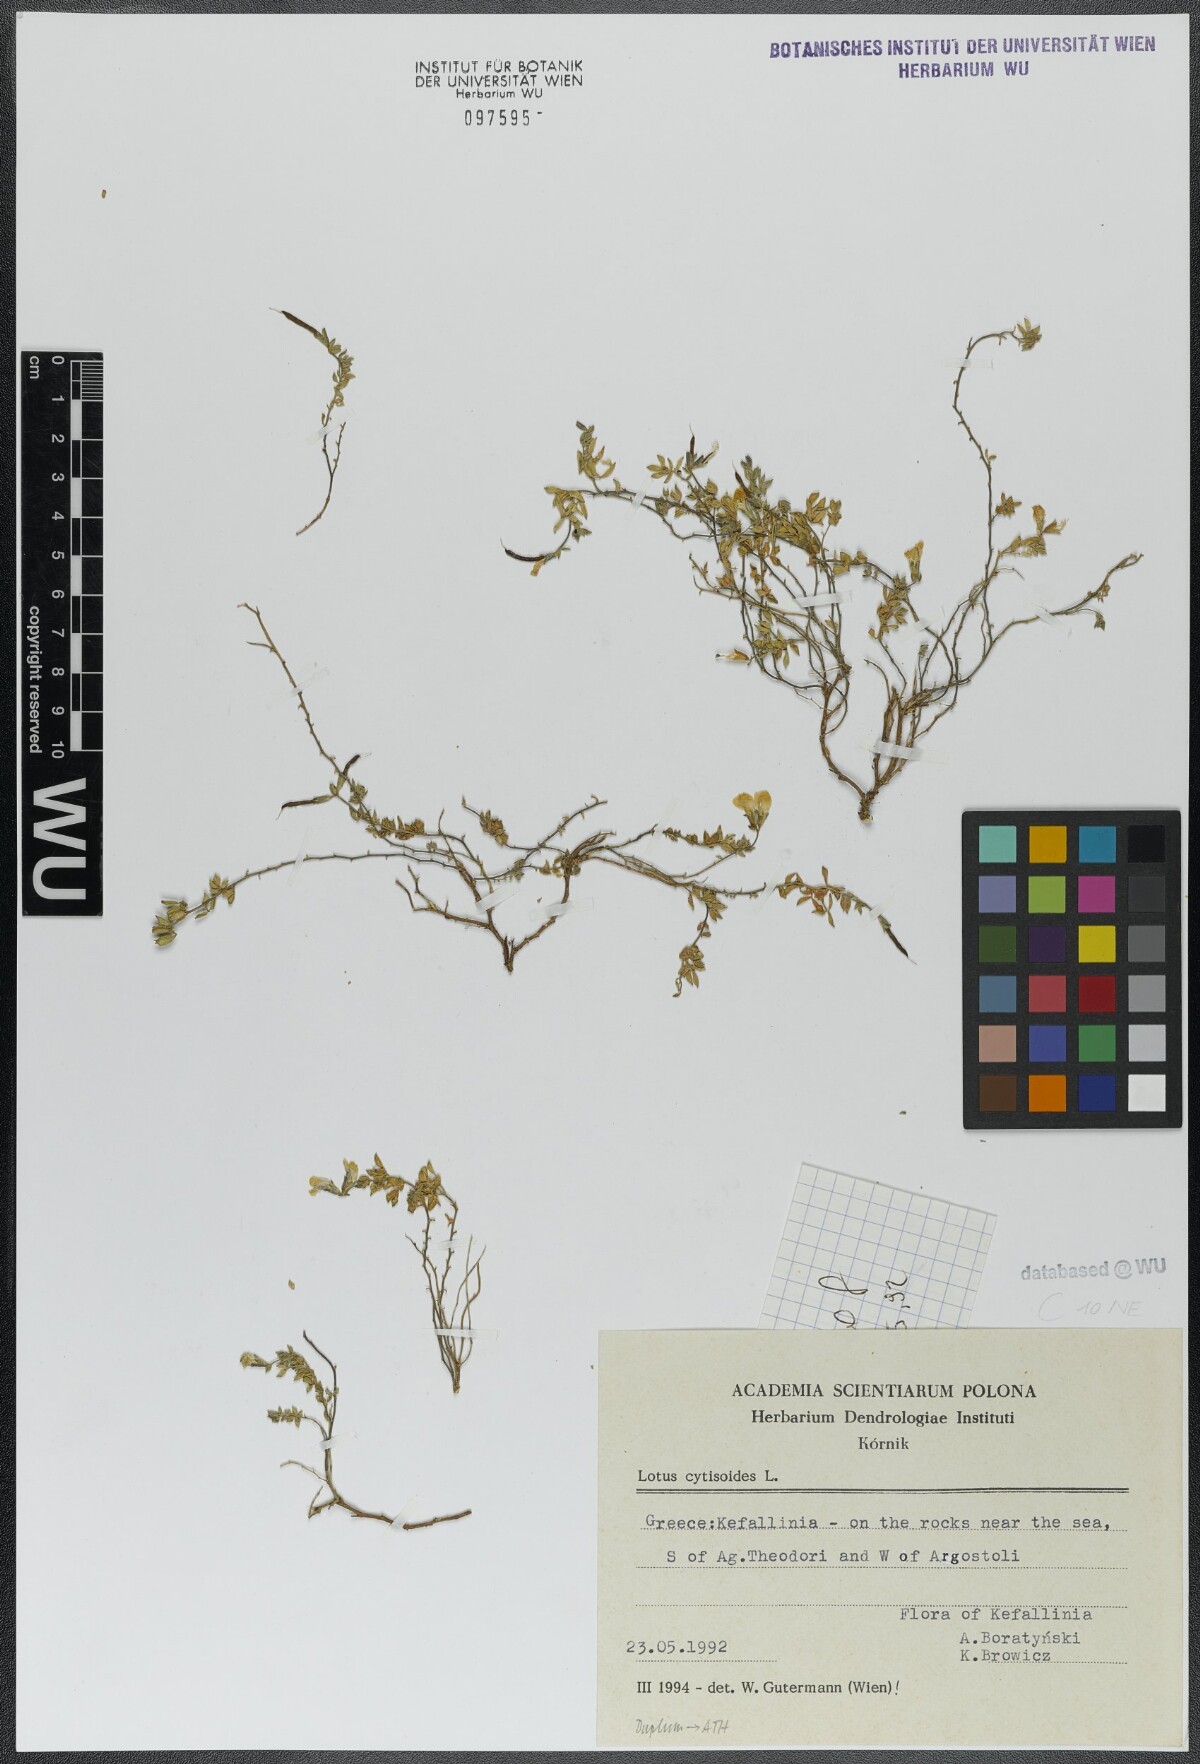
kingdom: Plantae
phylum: Tracheophyta
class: Magnoliopsida
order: Fabales
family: Fabaceae
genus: Lotus
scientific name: Lotus cytisoides
